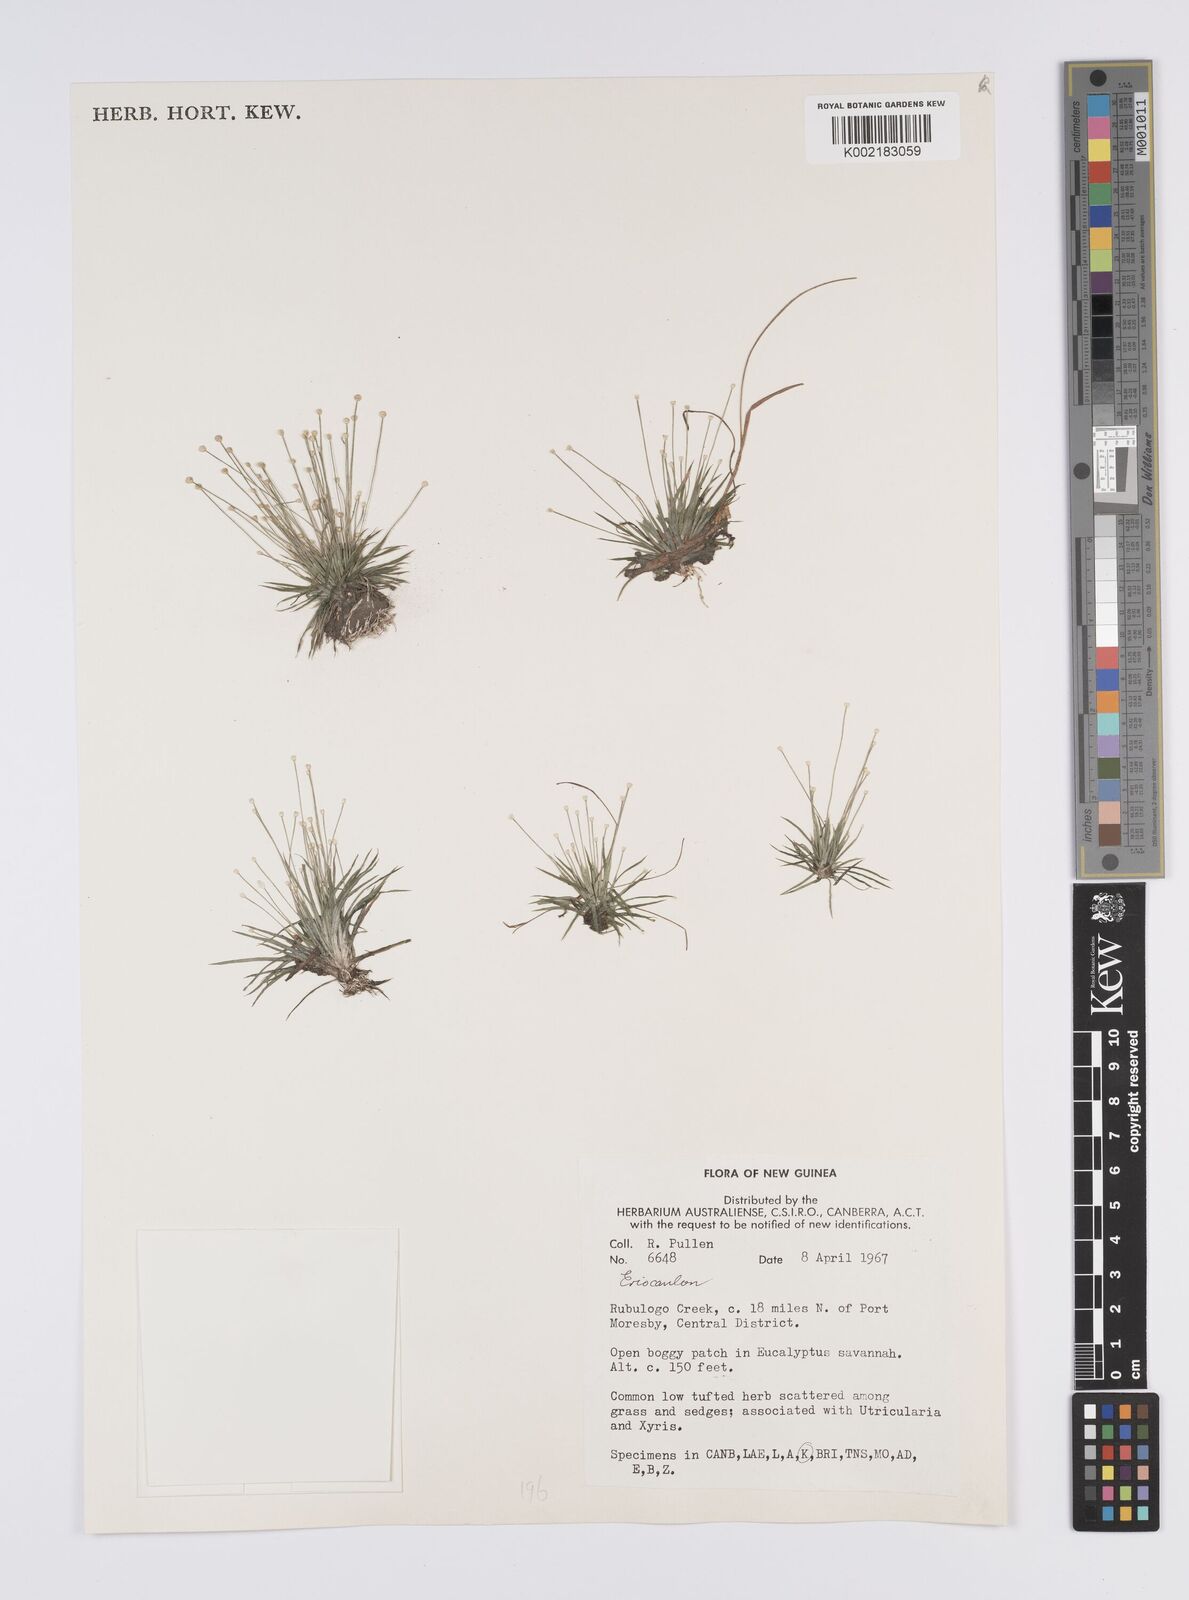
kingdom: Plantae
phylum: Tracheophyta
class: Liliopsida
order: Poales
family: Eriocaulaceae
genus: Eriocaulon
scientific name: Eriocaulon
